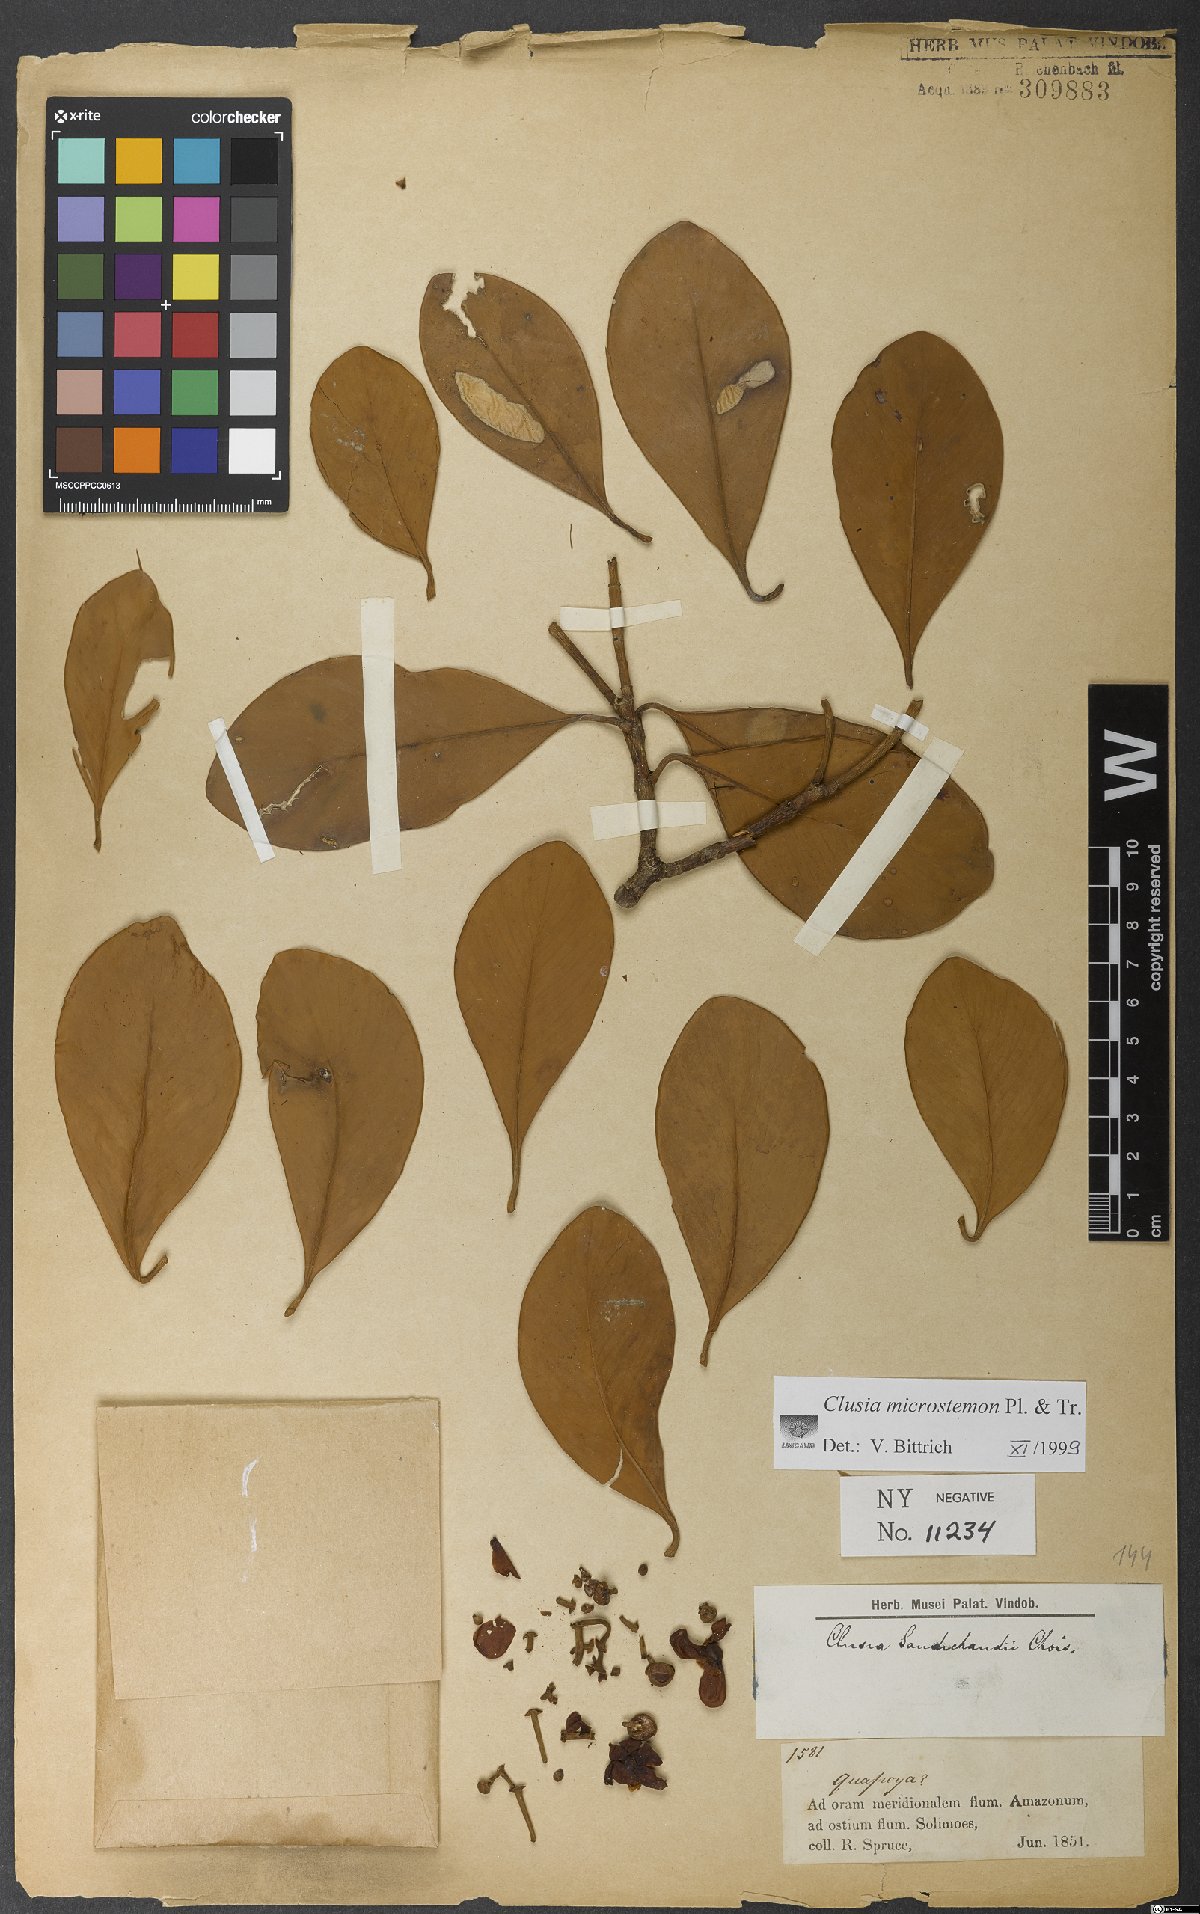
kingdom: Plantae
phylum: Tracheophyta
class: Magnoliopsida
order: Malpighiales
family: Clusiaceae
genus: Clusia
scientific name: Clusia microstemon
